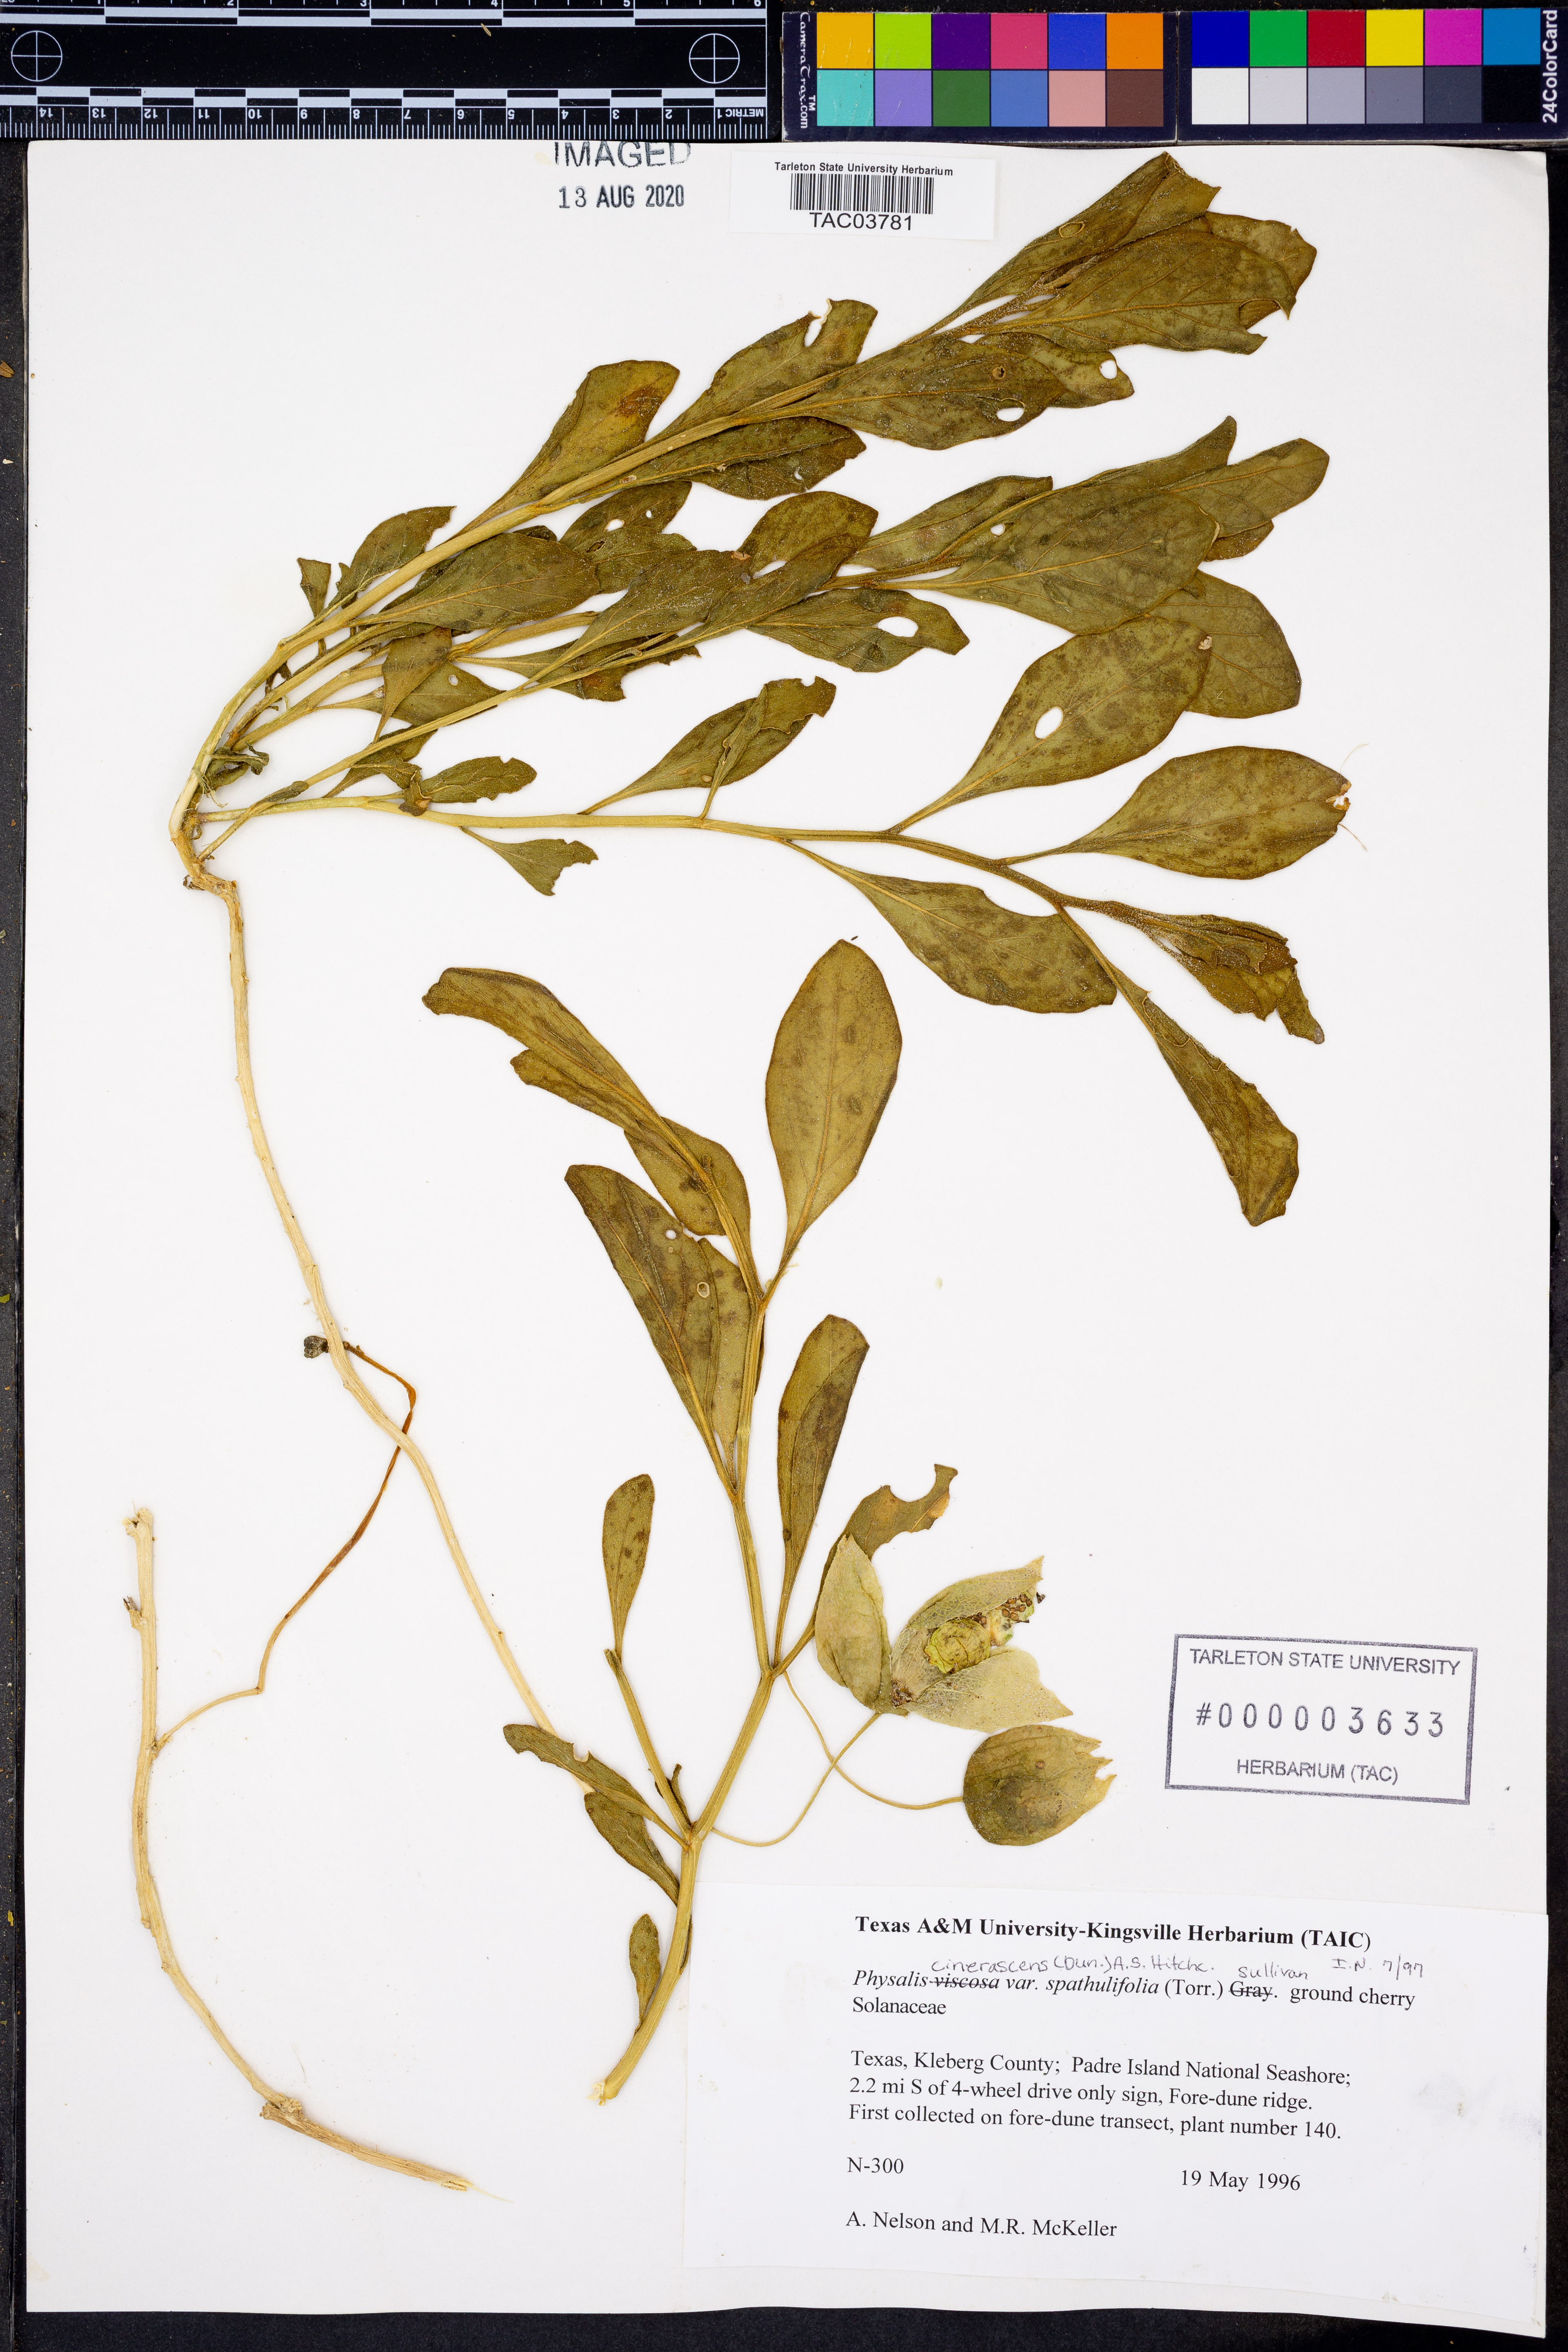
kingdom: Plantae
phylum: Tracheophyta
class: Magnoliopsida
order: Solanales
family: Solanaceae
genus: Physalis
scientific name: Physalis cinerascens
